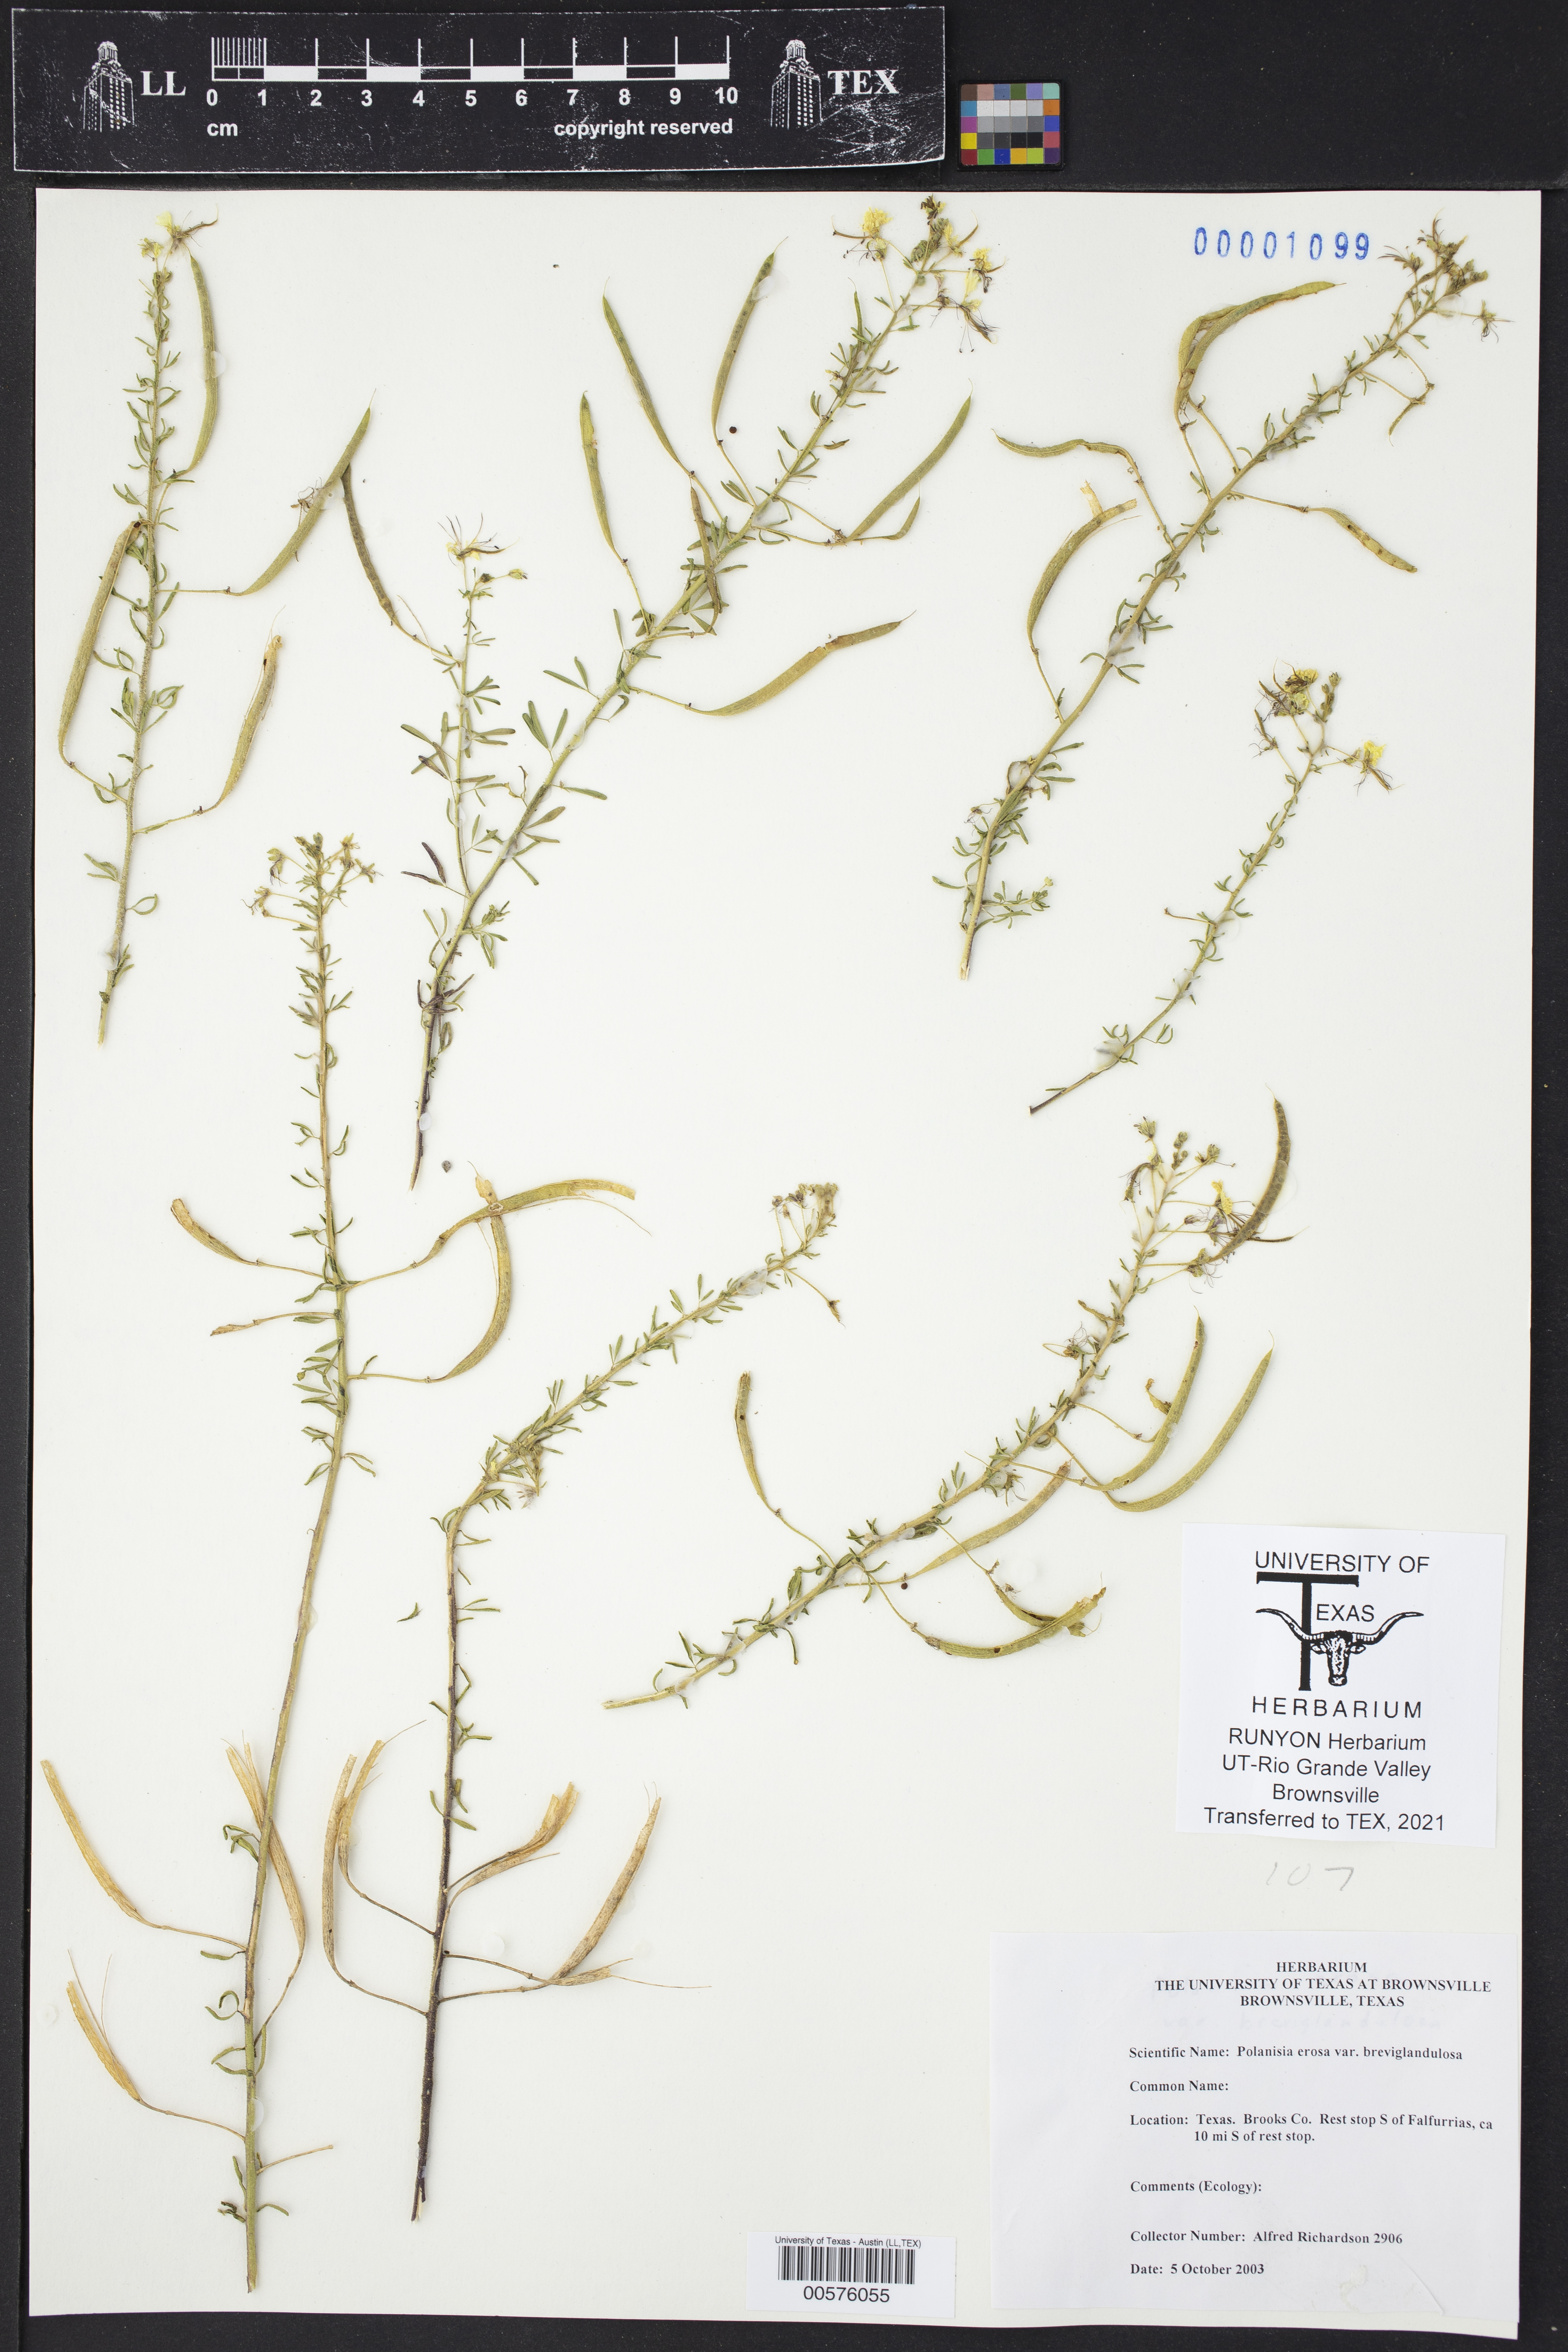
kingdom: Plantae
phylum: Tracheophyta
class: Magnoliopsida
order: Brassicales
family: Cleomaceae
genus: Polanisia
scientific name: Polanisia erosa
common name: Large clammyweed
